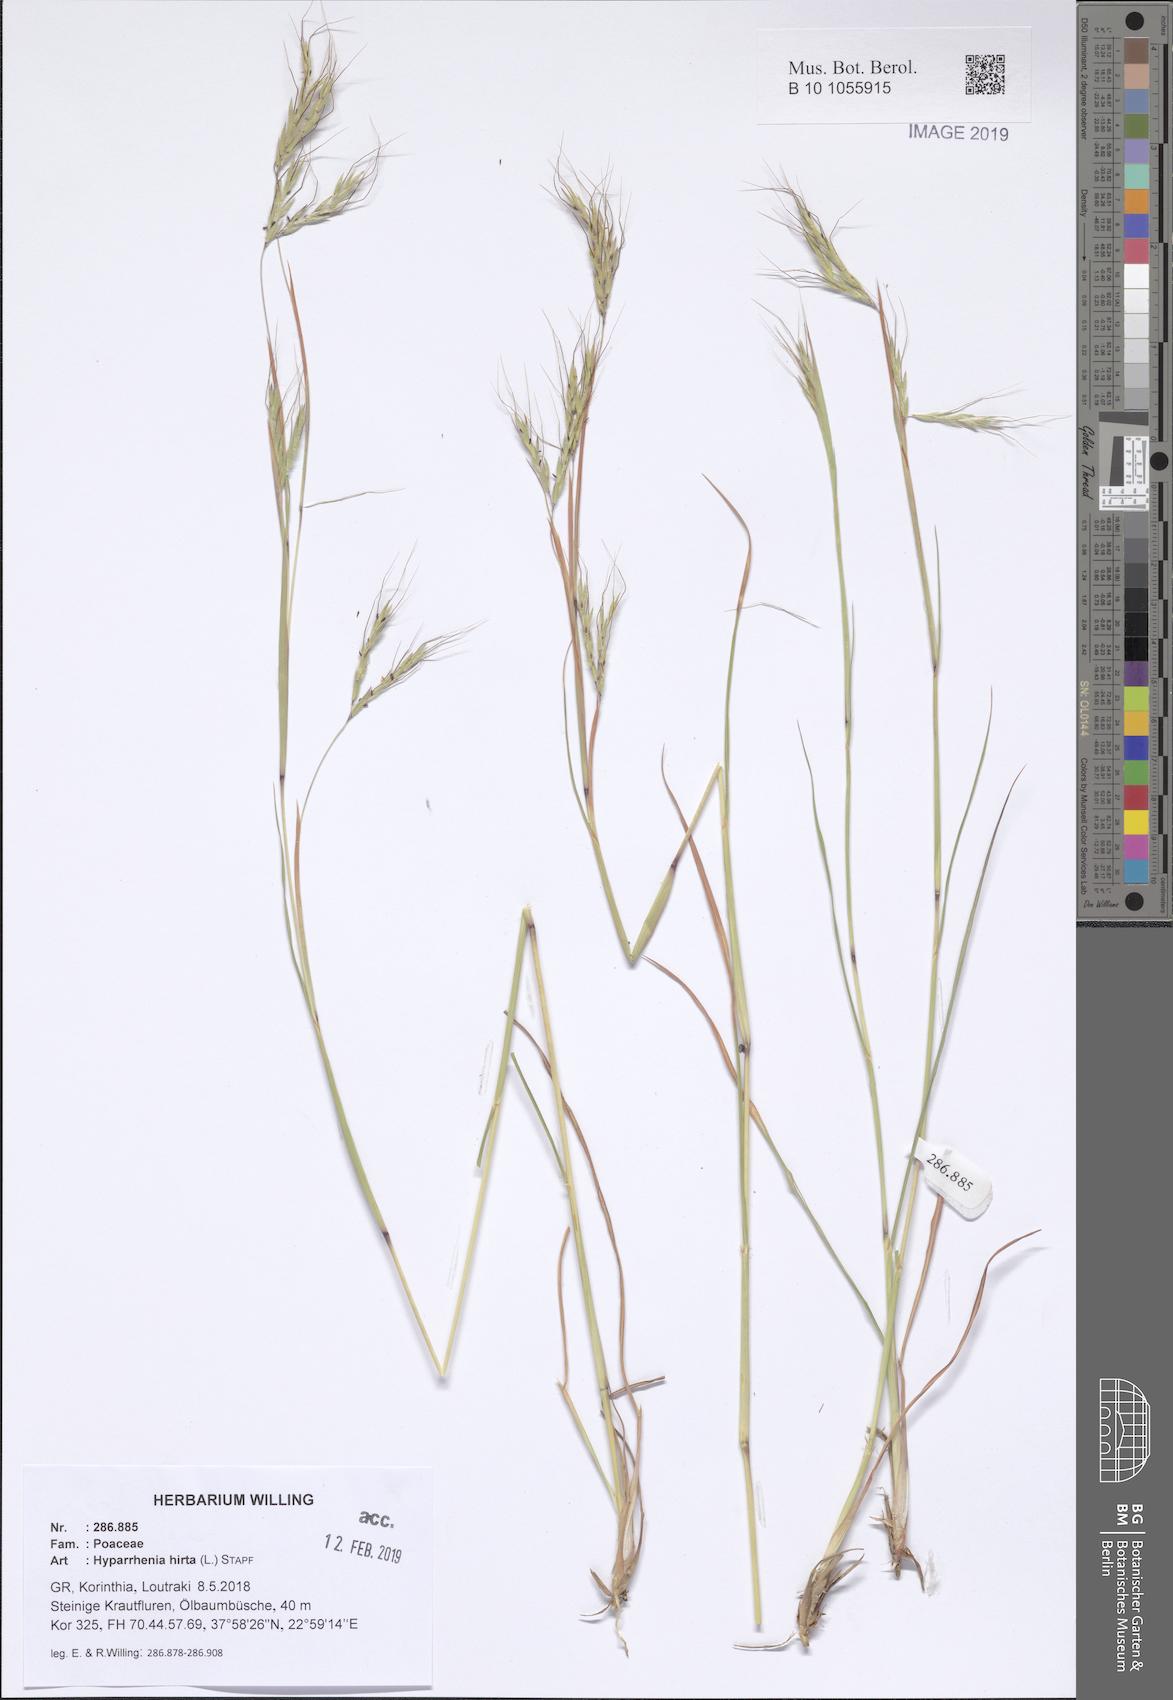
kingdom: Plantae
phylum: Tracheophyta
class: Liliopsida
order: Poales
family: Poaceae
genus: Hyparrhenia
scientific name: Hyparrhenia hirta
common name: Thatching grass
